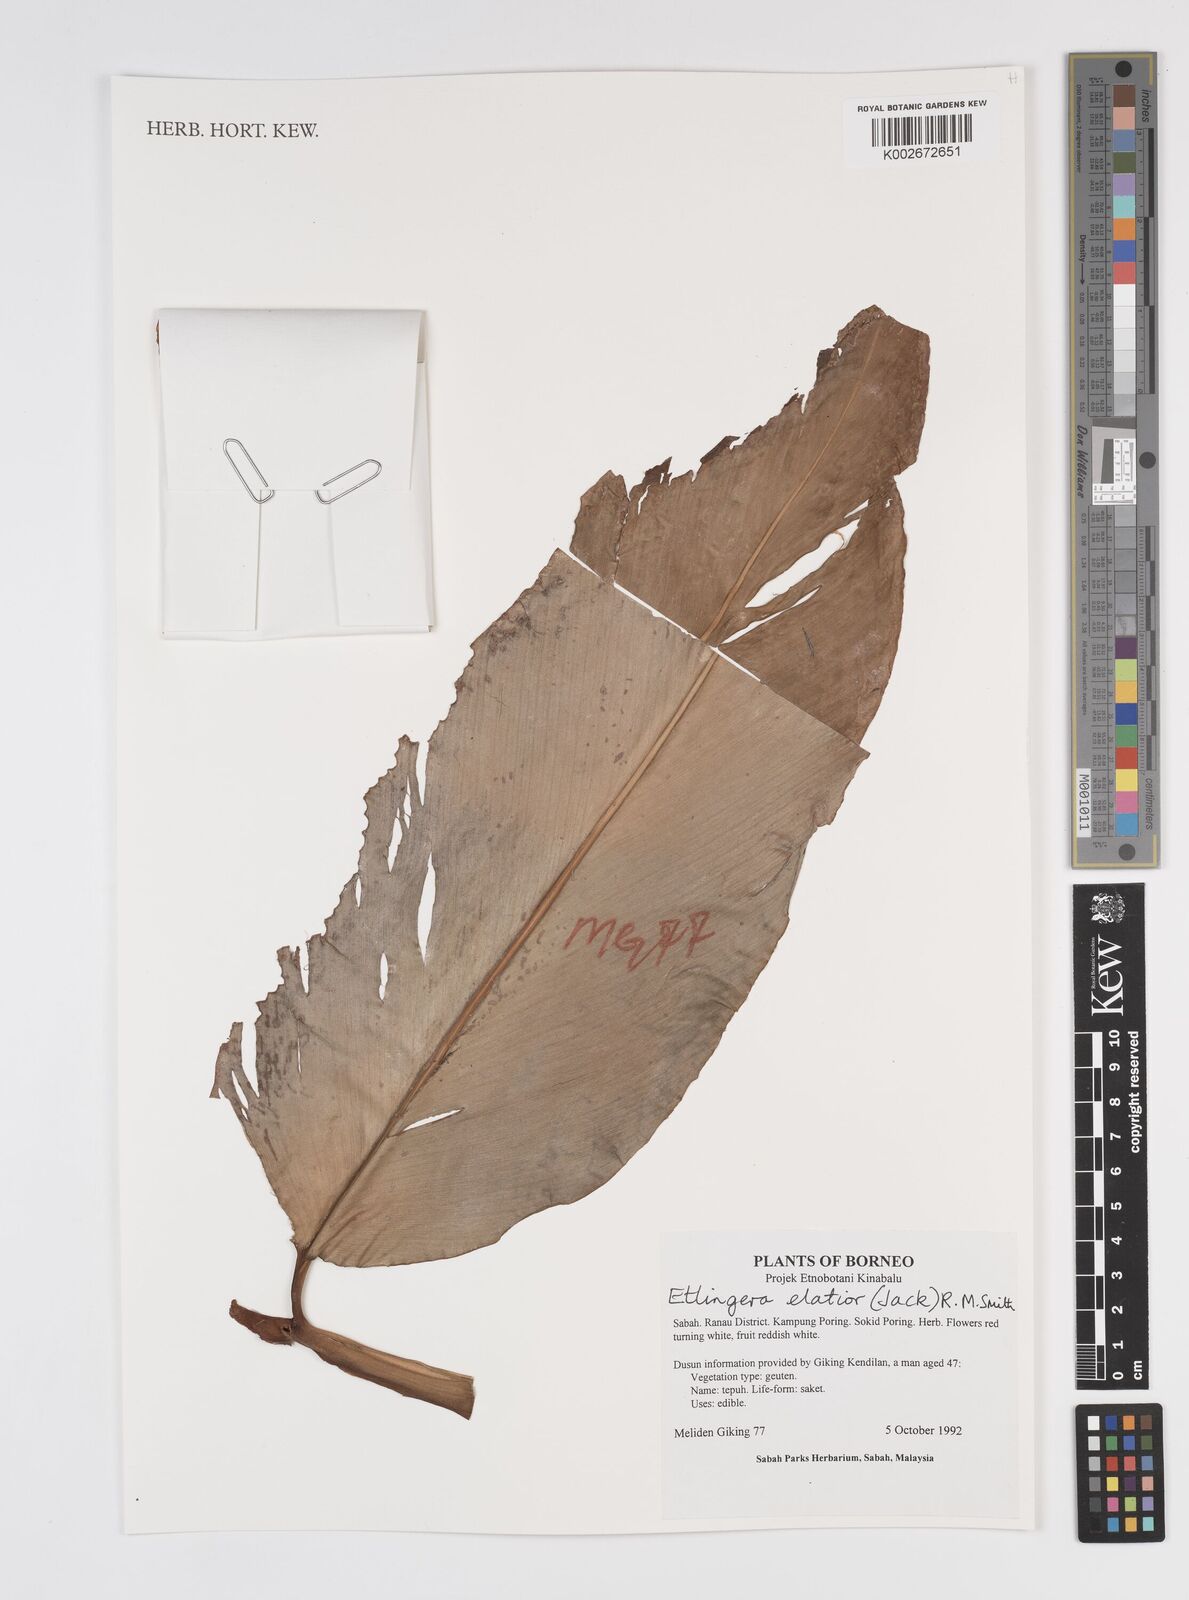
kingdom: Plantae
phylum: Tracheophyta
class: Liliopsida
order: Zingiberales
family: Zingiberaceae
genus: Etlingera
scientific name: Etlingera elatior
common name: Philippine waxflower
